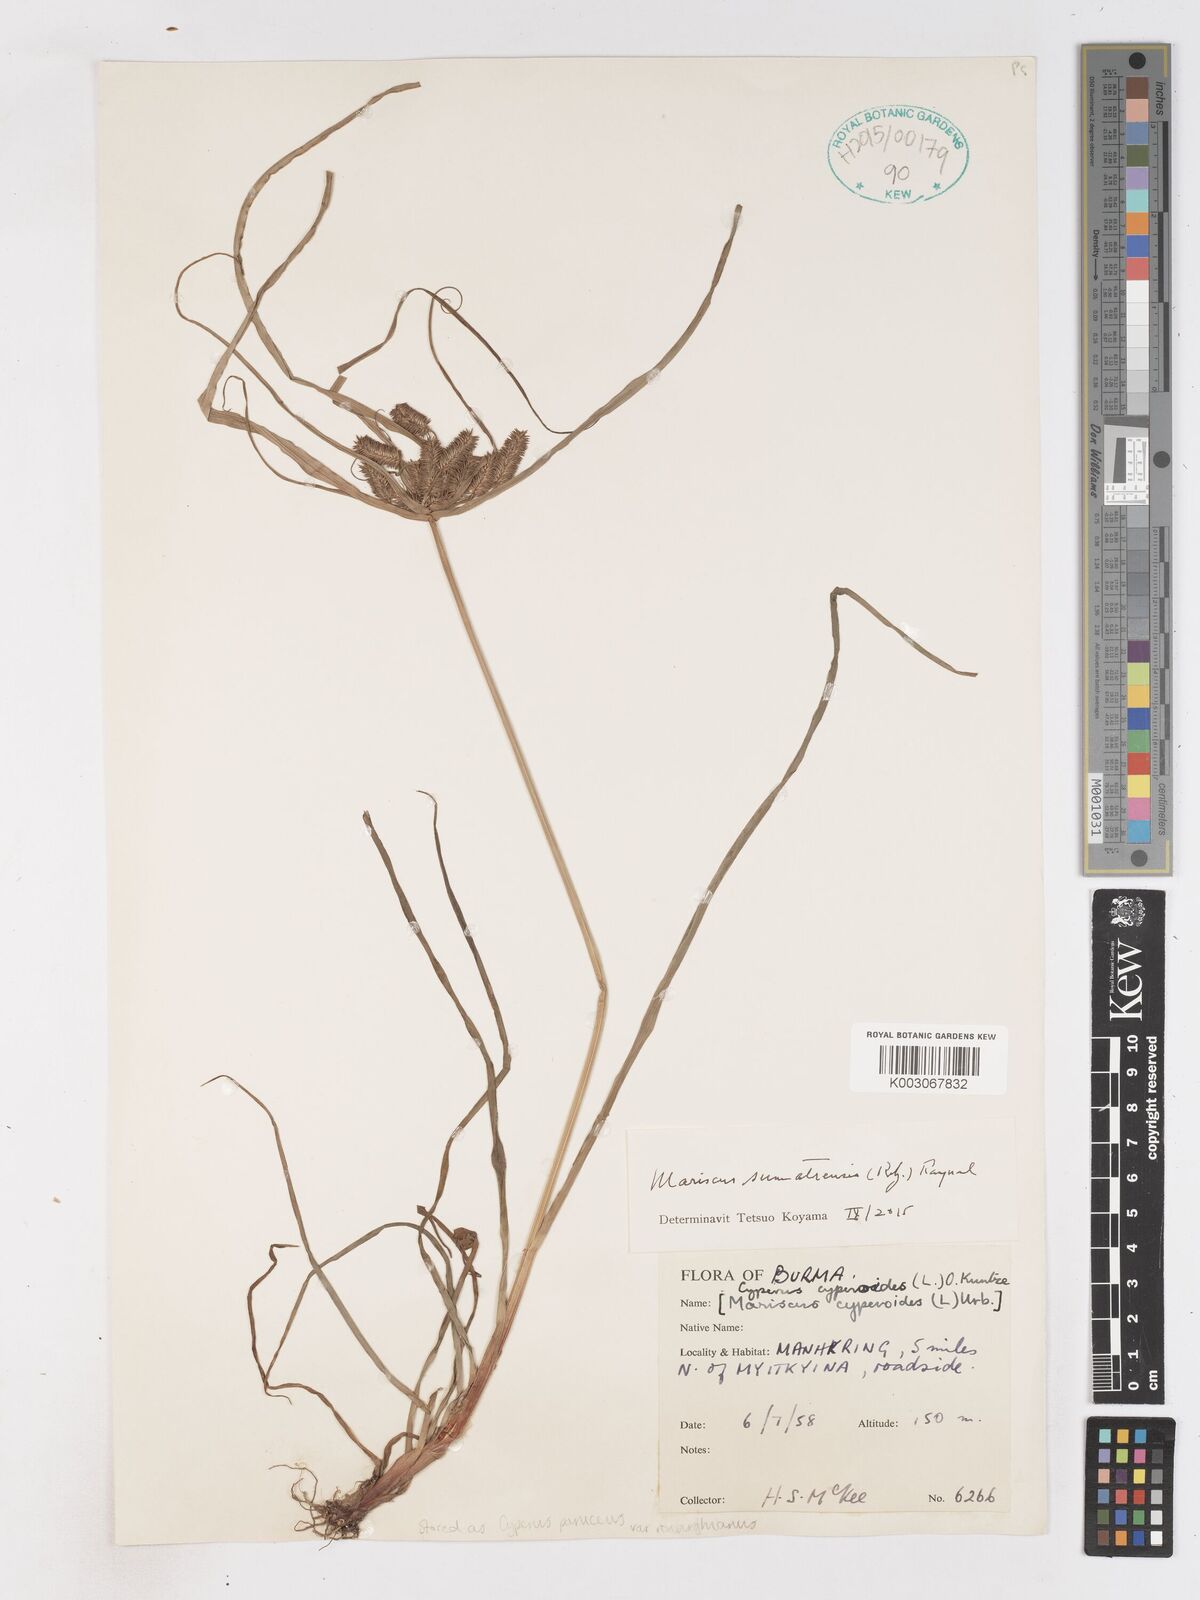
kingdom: Plantae
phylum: Tracheophyta
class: Liliopsida
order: Poales
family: Cyperaceae
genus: Cyperus
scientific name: Cyperus cyperoides
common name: Pacific island flat sedge
